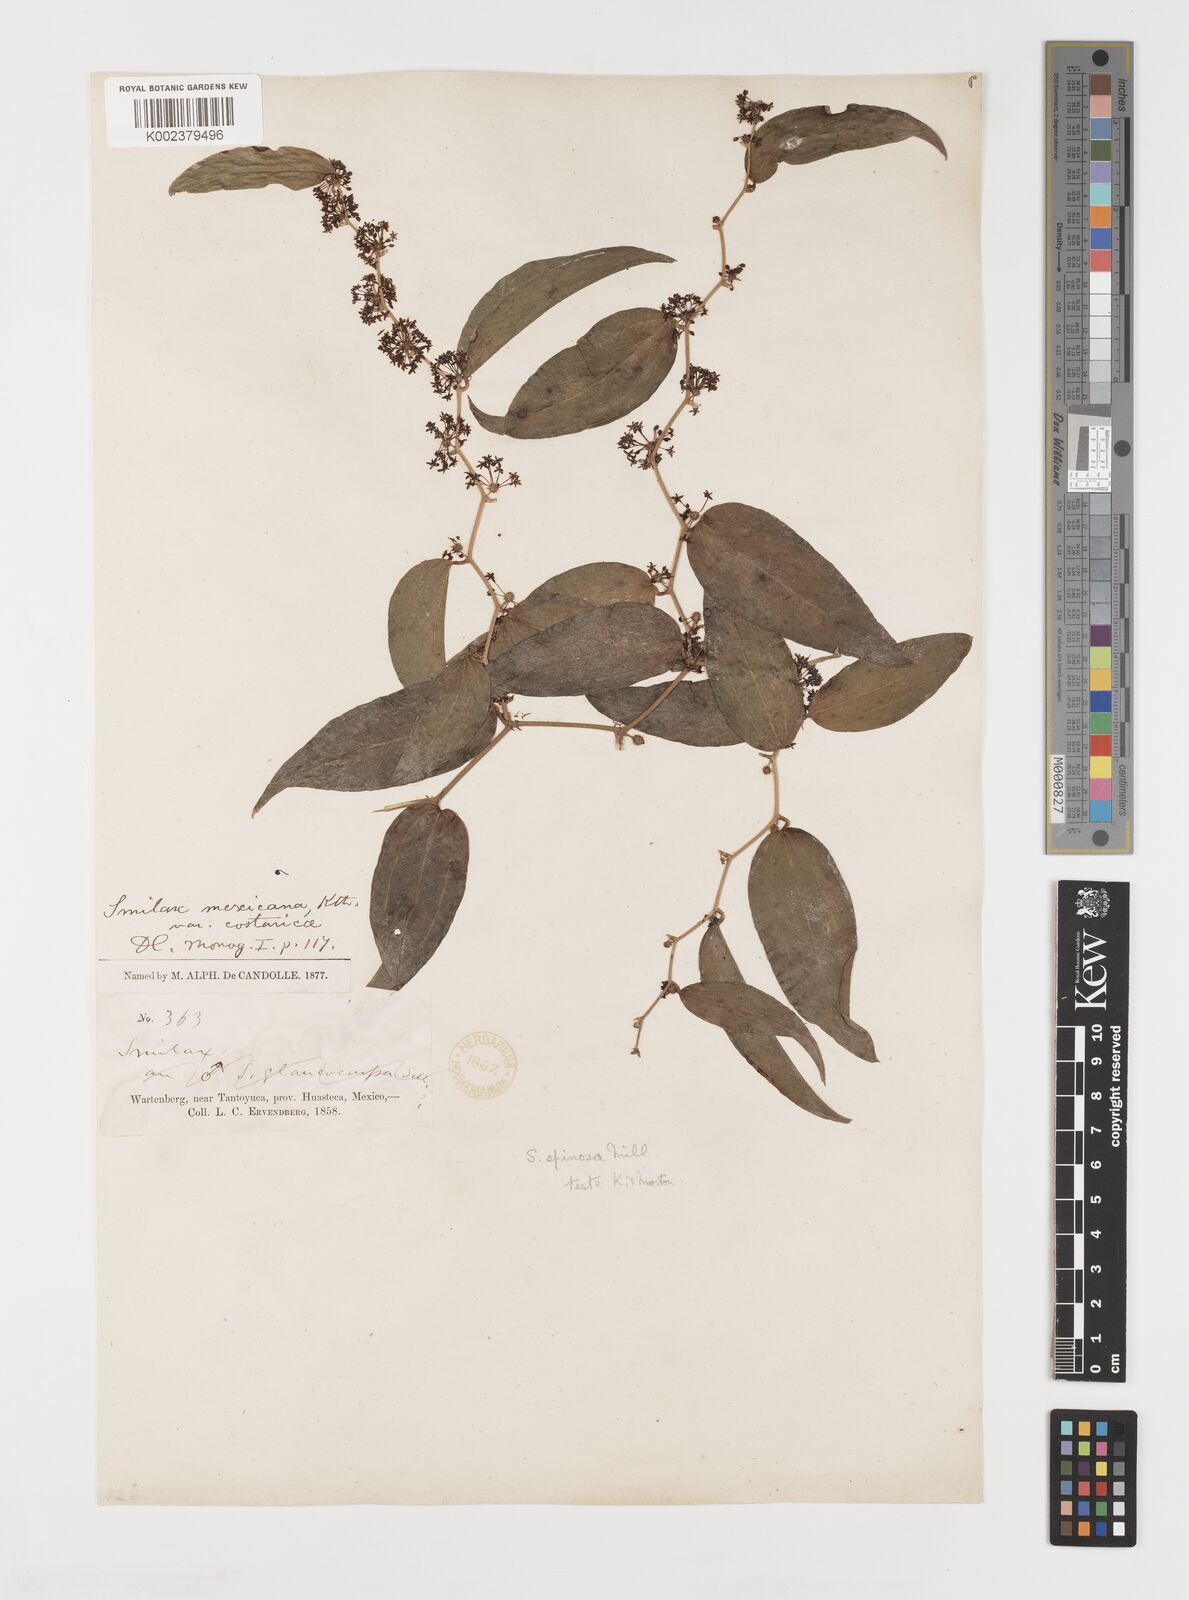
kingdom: Plantae
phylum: Tracheophyta
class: Liliopsida
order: Liliales
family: Smilacaceae
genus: Smilax
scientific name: Smilax spinosa
